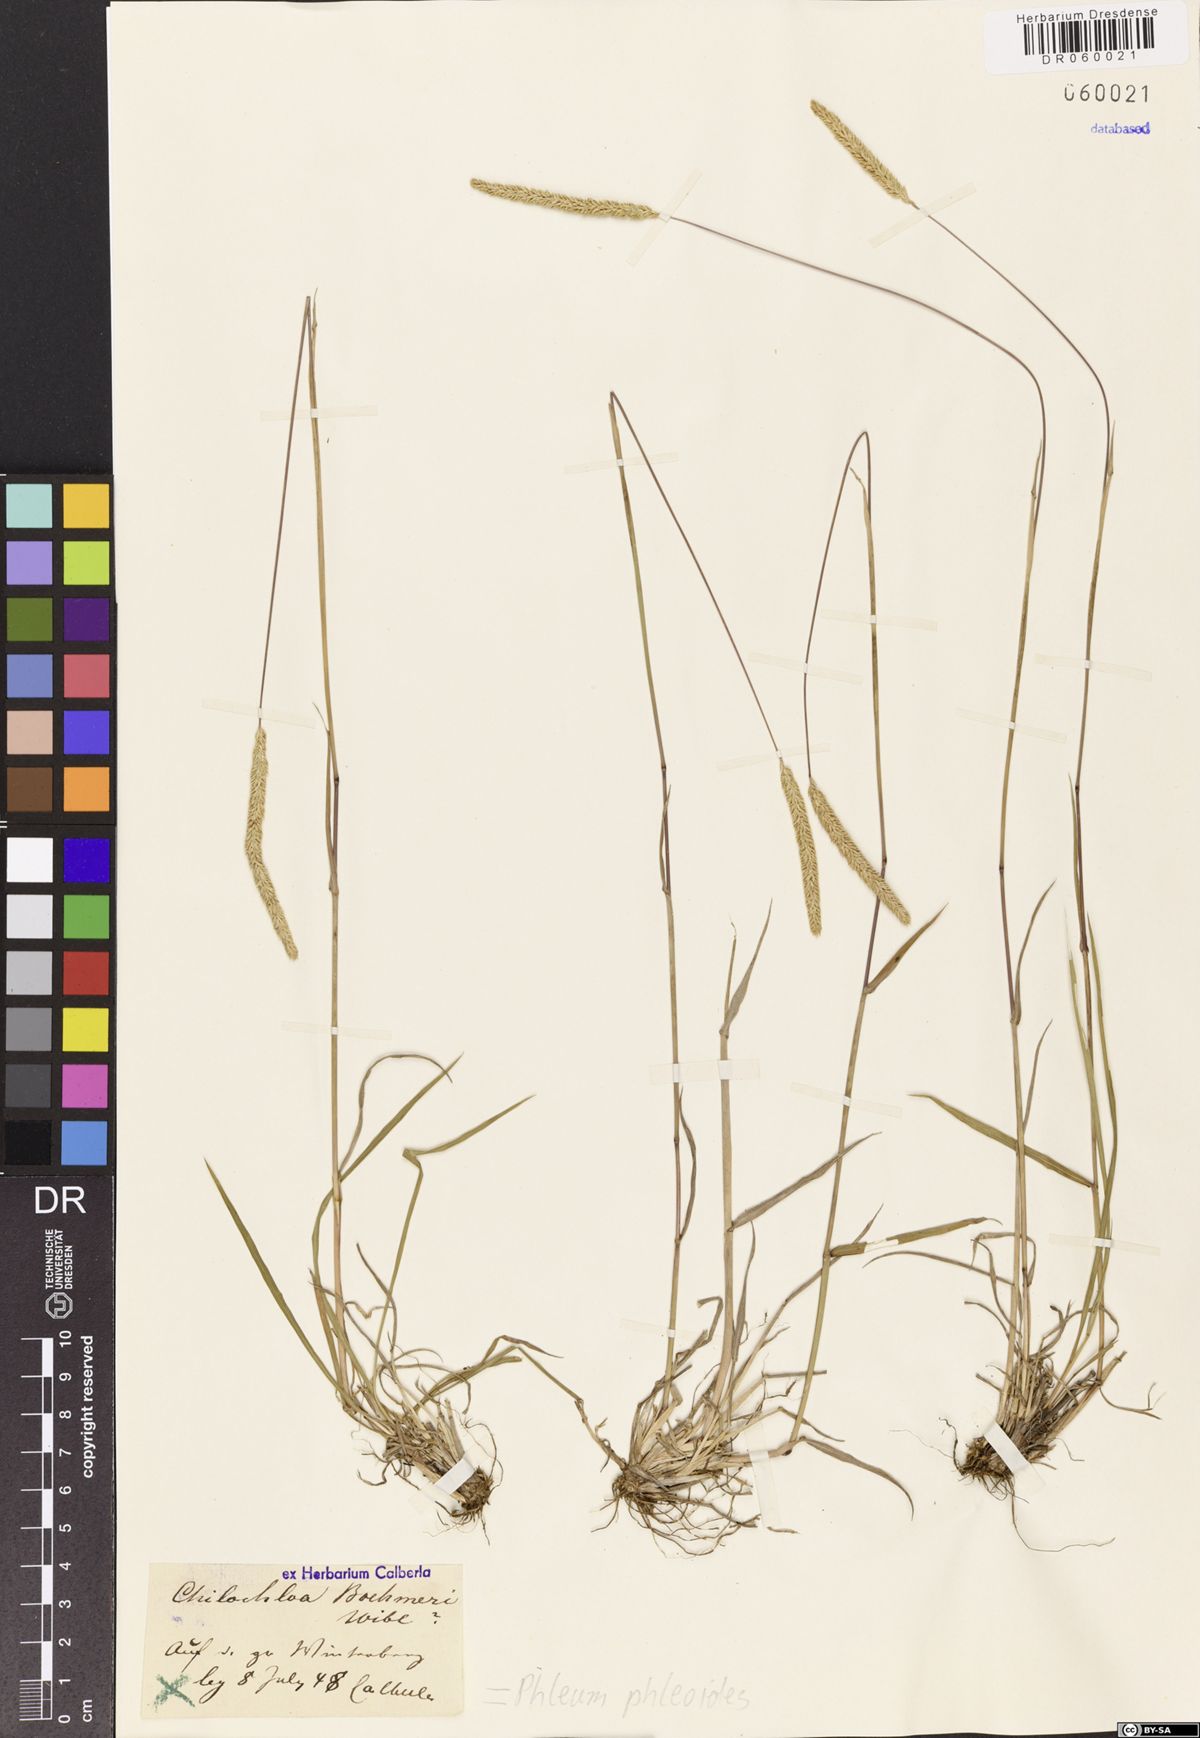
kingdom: Plantae
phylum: Tracheophyta
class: Liliopsida
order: Poales
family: Poaceae
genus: Phleum
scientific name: Phleum phleoides
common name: Purple-stem cat's-tail
